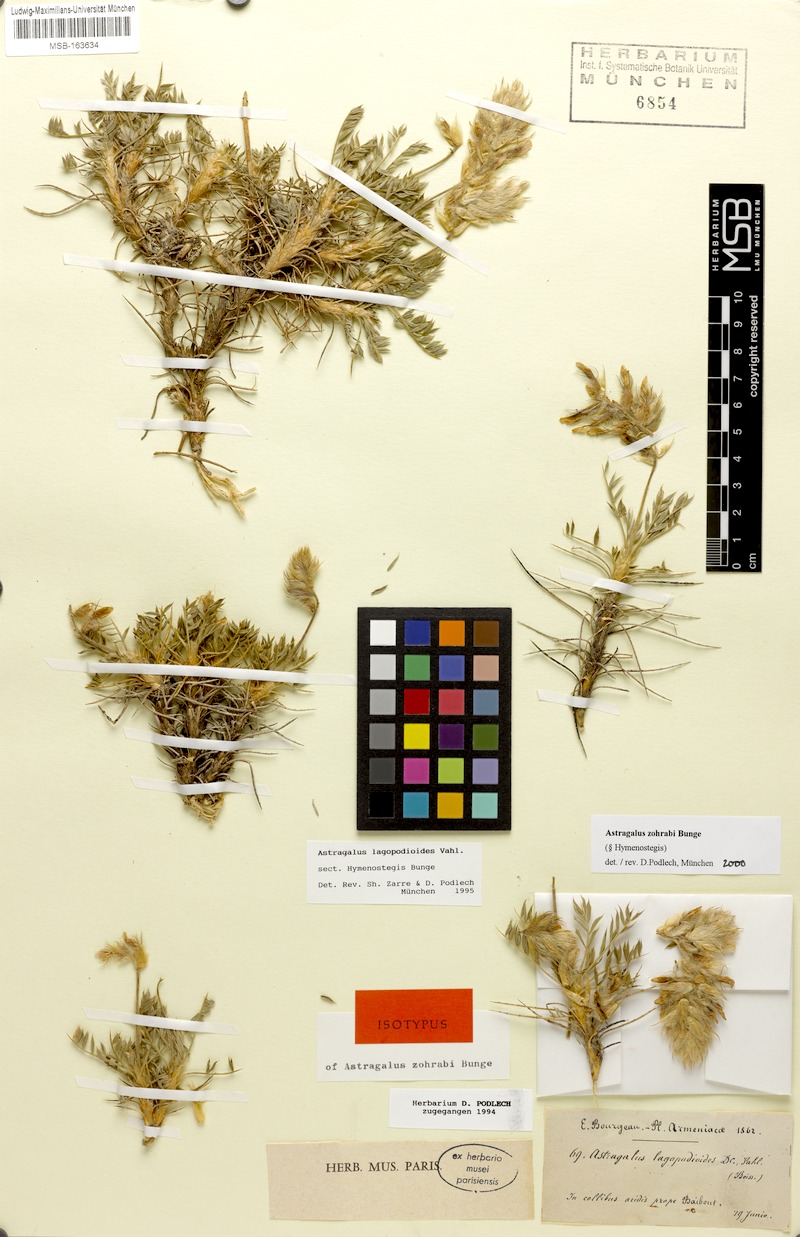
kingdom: Plantae
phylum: Tracheophyta
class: Magnoliopsida
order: Fabales
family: Fabaceae
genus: Astragalus
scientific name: Astragalus lagopodioides
